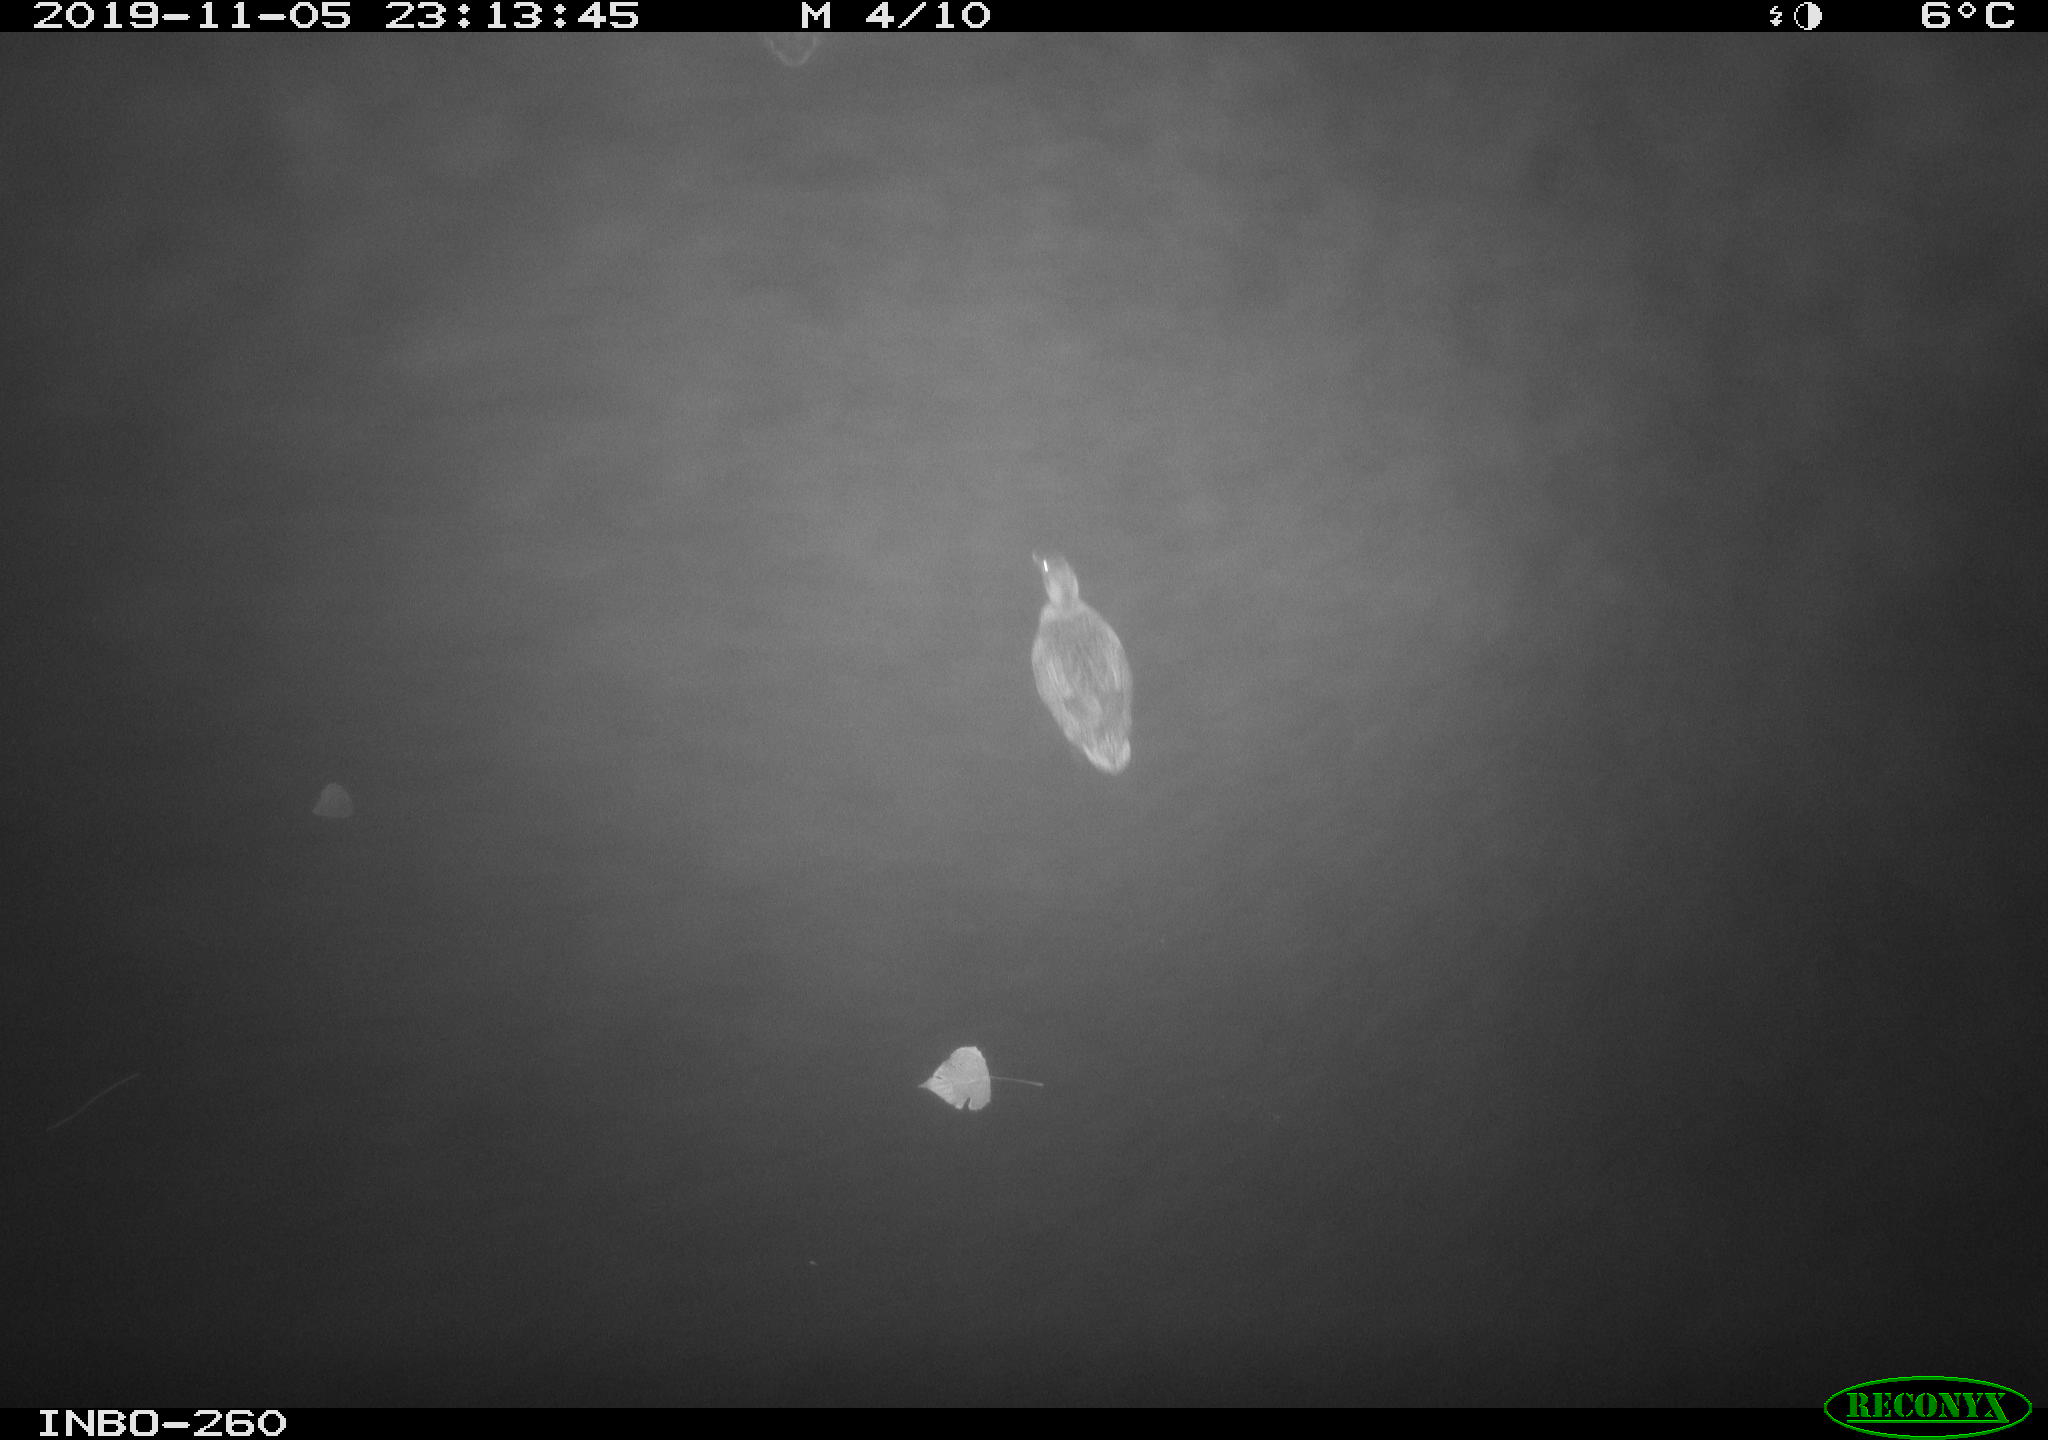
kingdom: Animalia
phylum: Chordata
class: Aves
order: Anseriformes
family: Anatidae
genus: Anas
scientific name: Anas platyrhynchos
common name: Mallard
